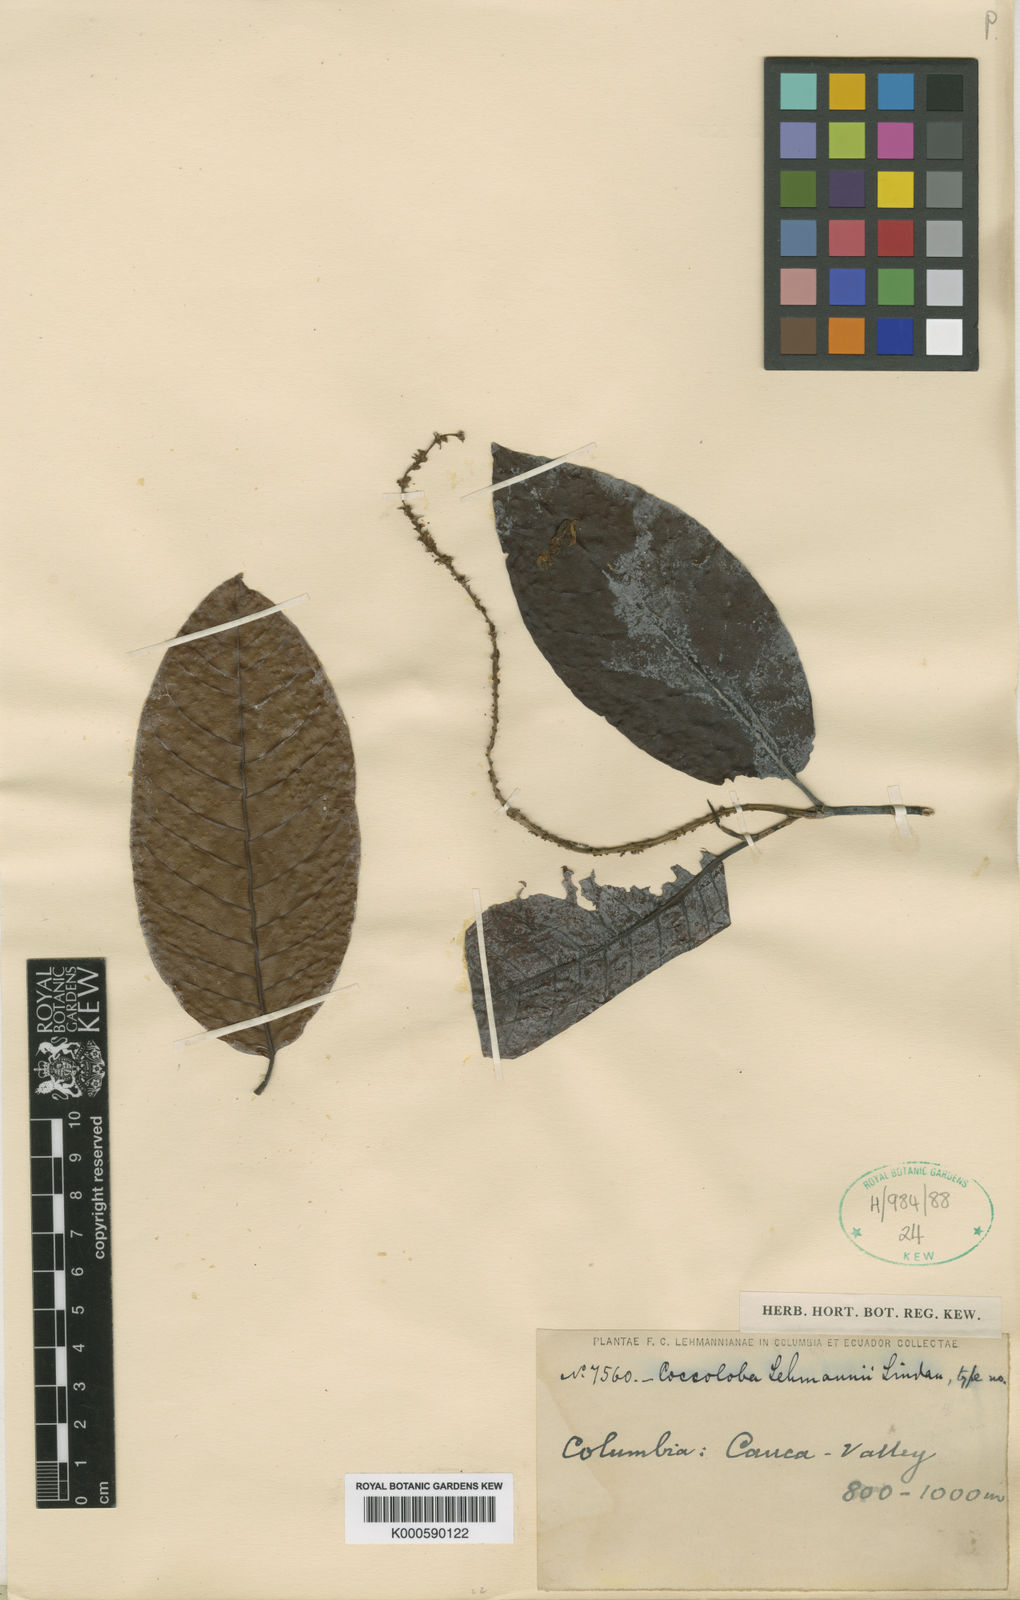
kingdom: Plantae
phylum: Tracheophyta
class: Magnoliopsida
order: Caryophyllales
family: Polygonaceae
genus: Coccoloba
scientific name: Coccoloba lehmannii
